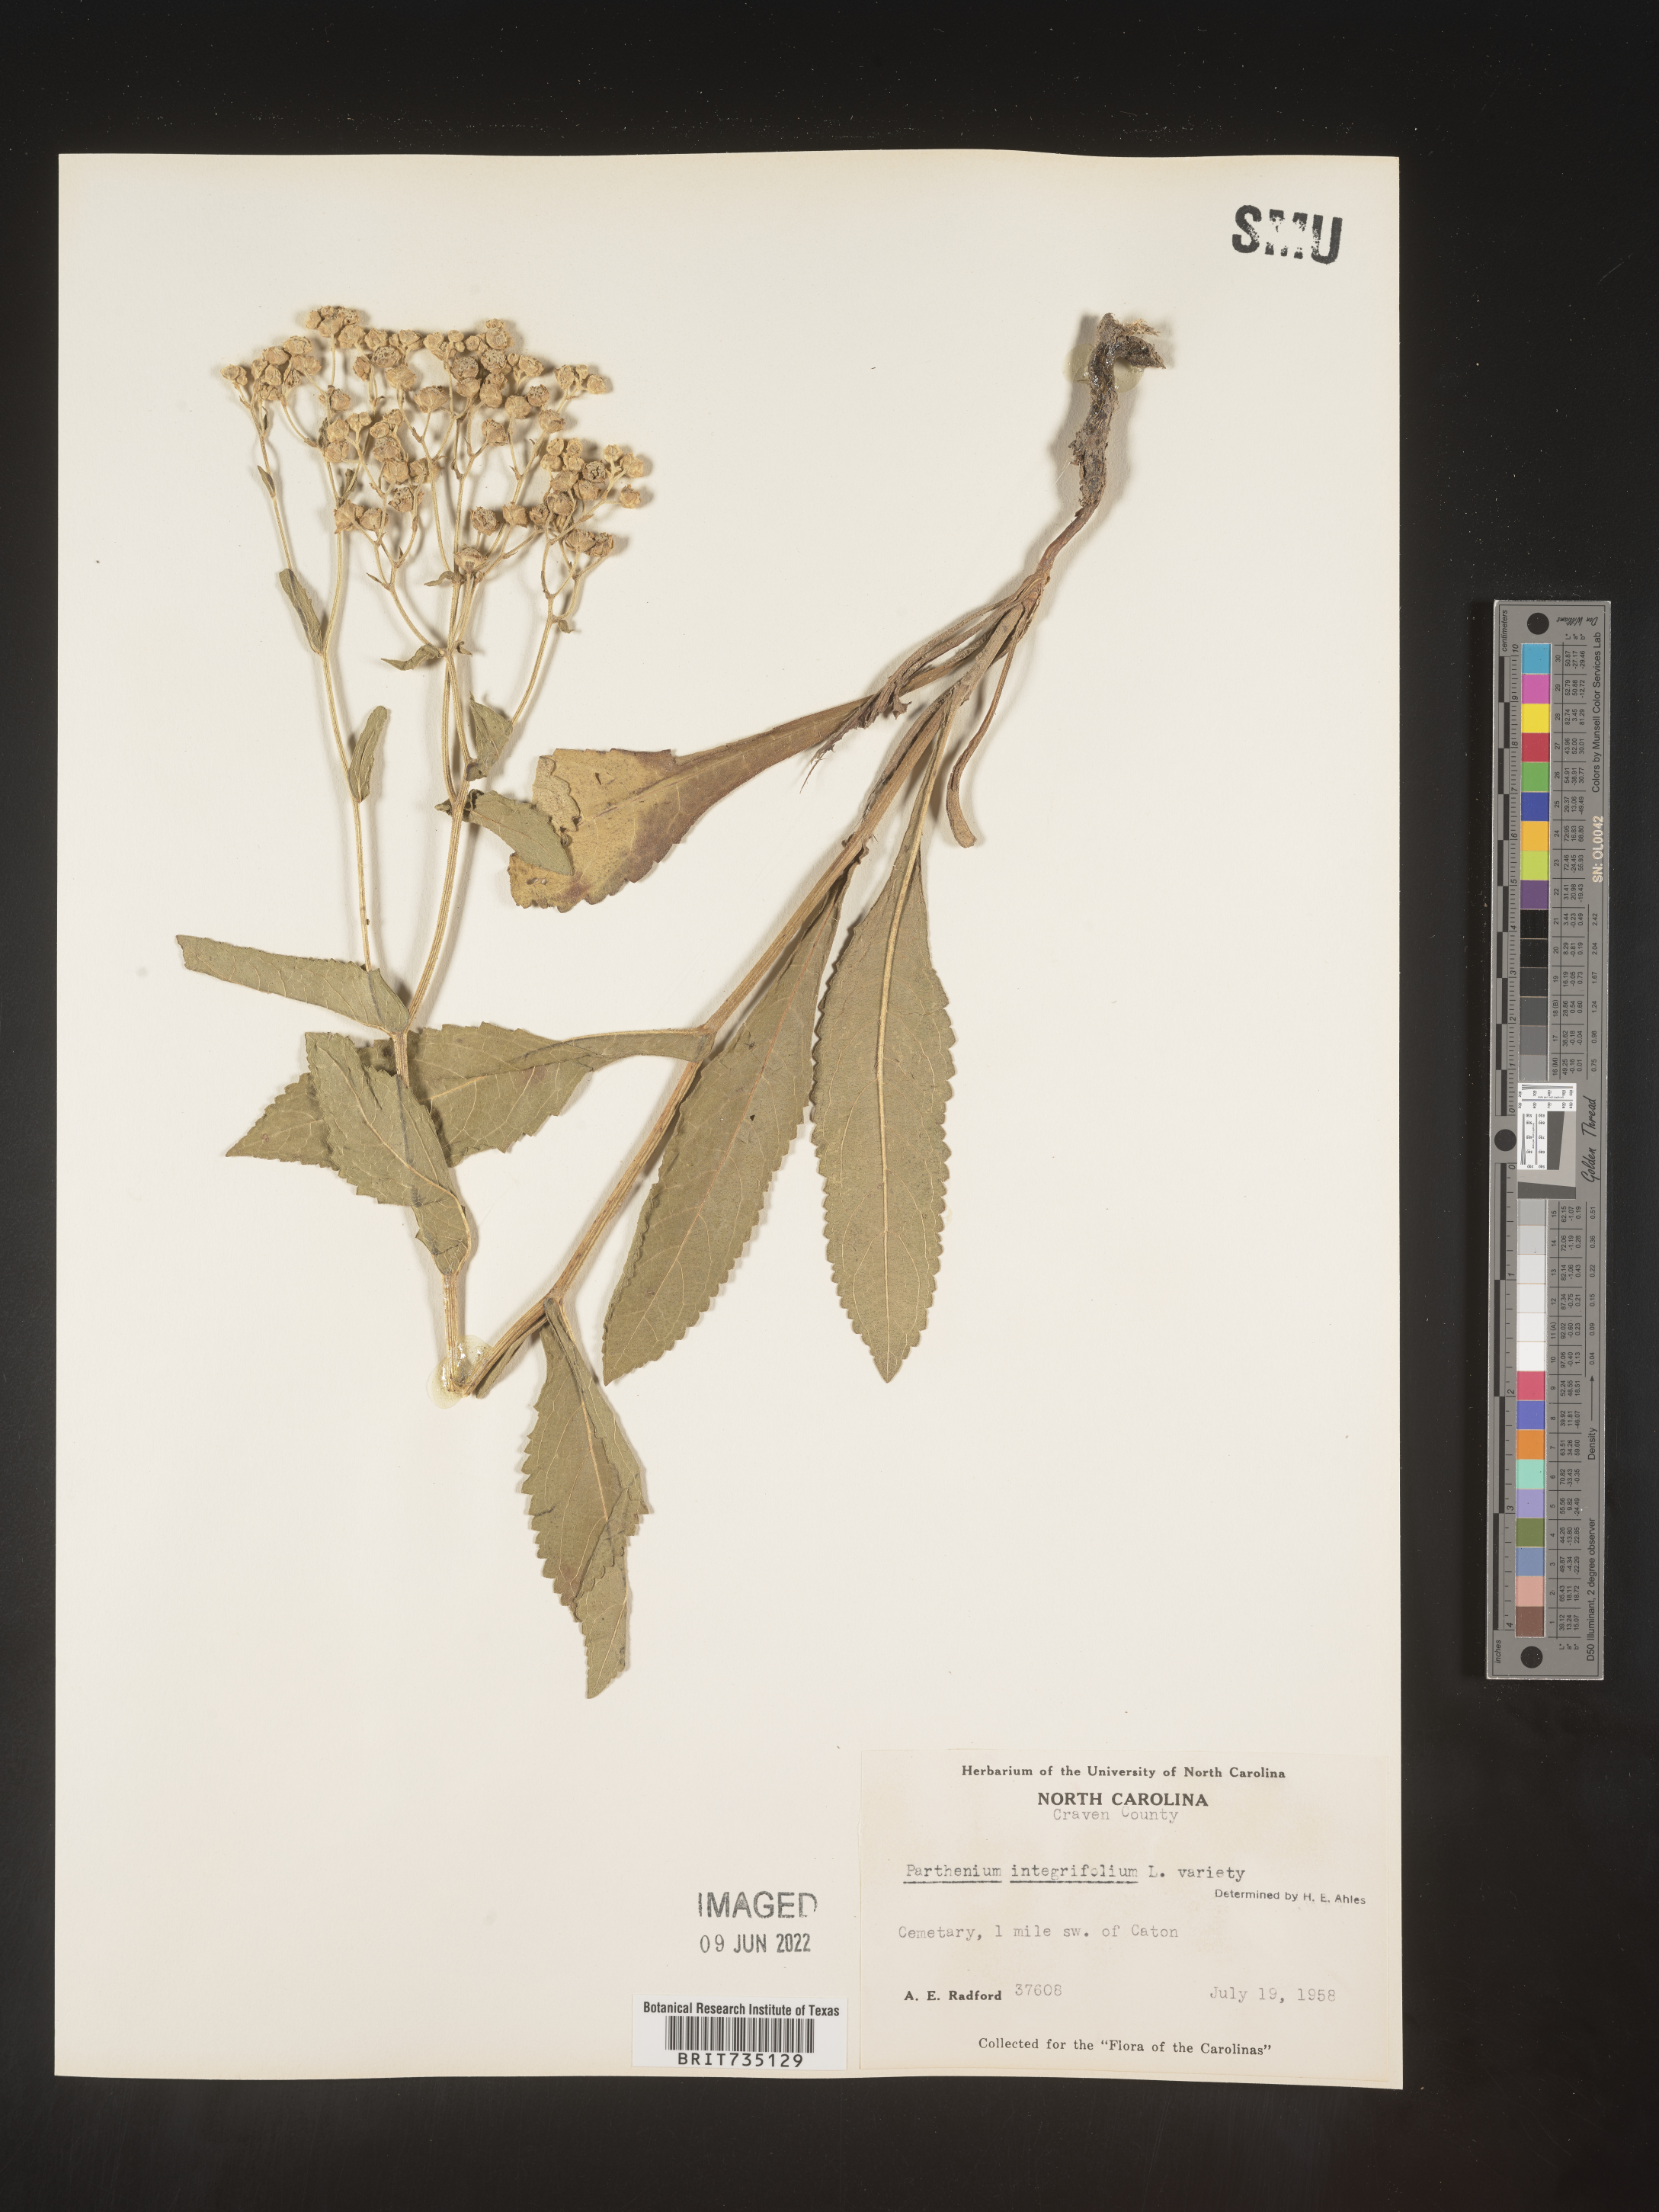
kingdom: Plantae
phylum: Tracheophyta
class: Magnoliopsida
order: Asterales
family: Asteraceae
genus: Parthenium
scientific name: Parthenium integrifolium
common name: American feverfew
